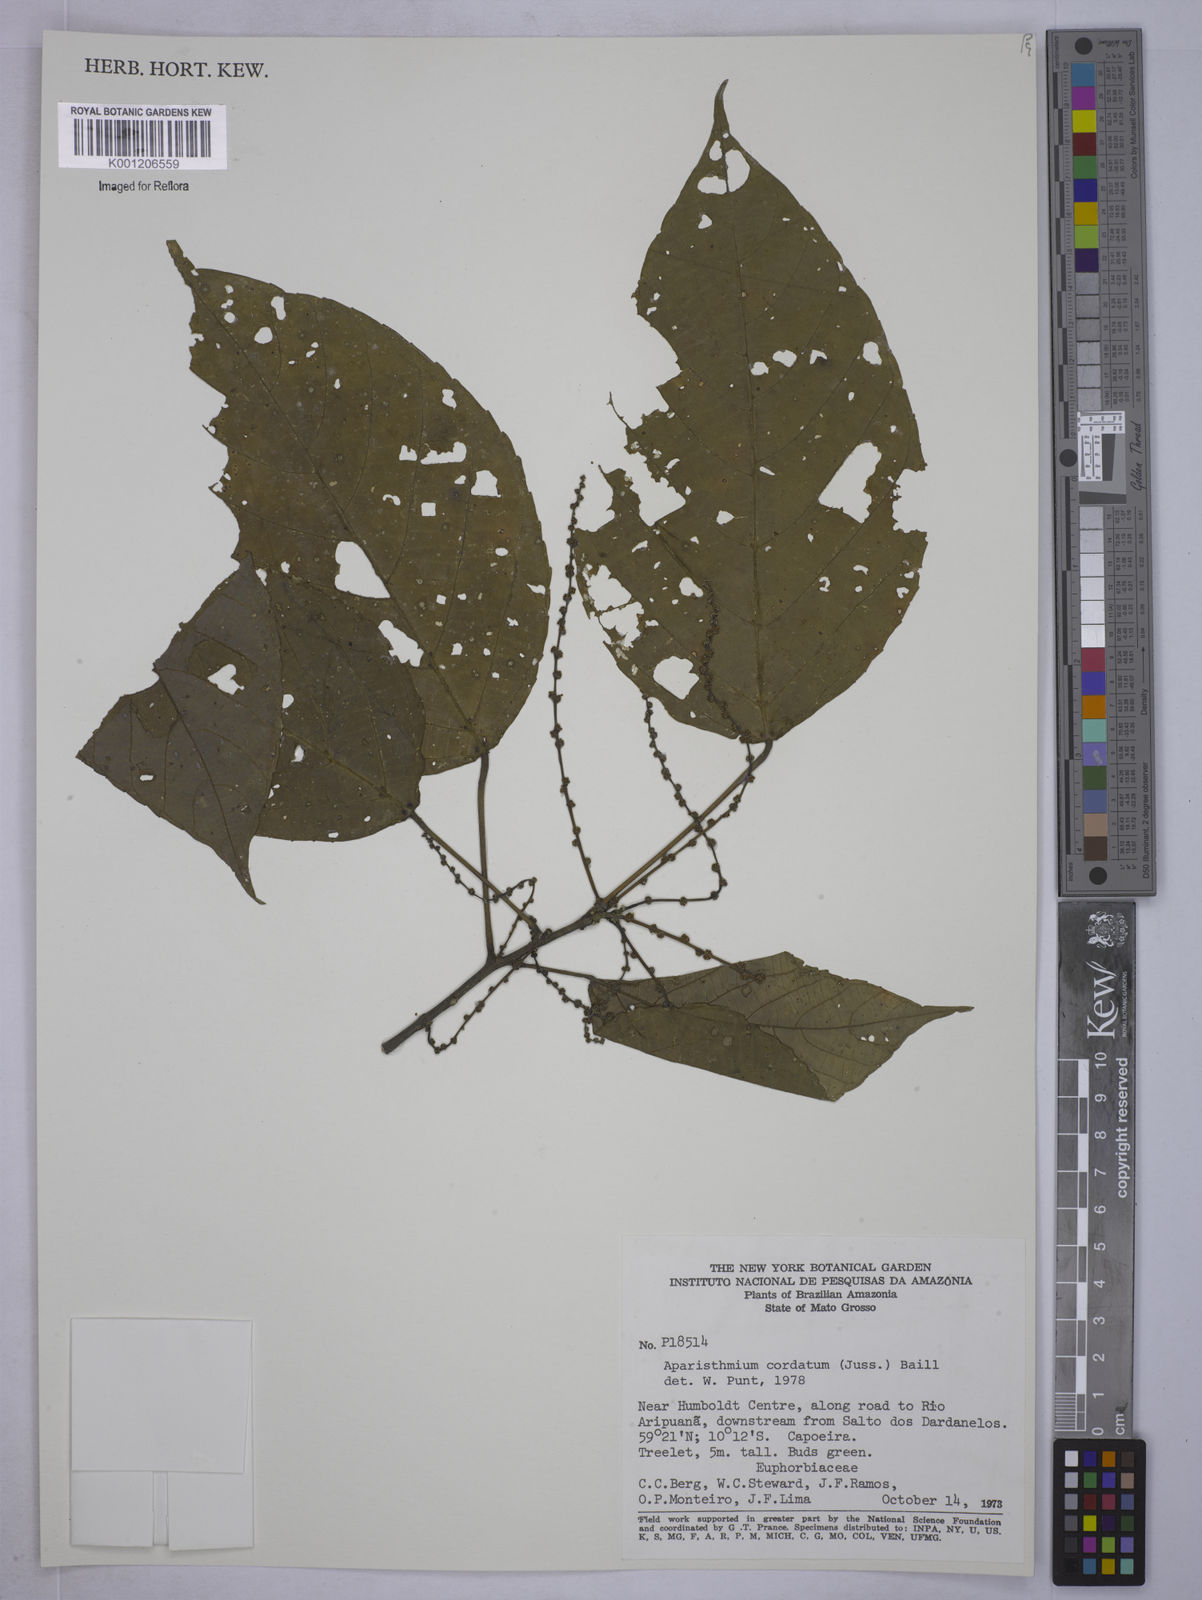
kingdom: Plantae
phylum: Tracheophyta
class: Magnoliopsida
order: Malpighiales
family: Euphorbiaceae
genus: Aparisthmium
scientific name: Aparisthmium cordatum
